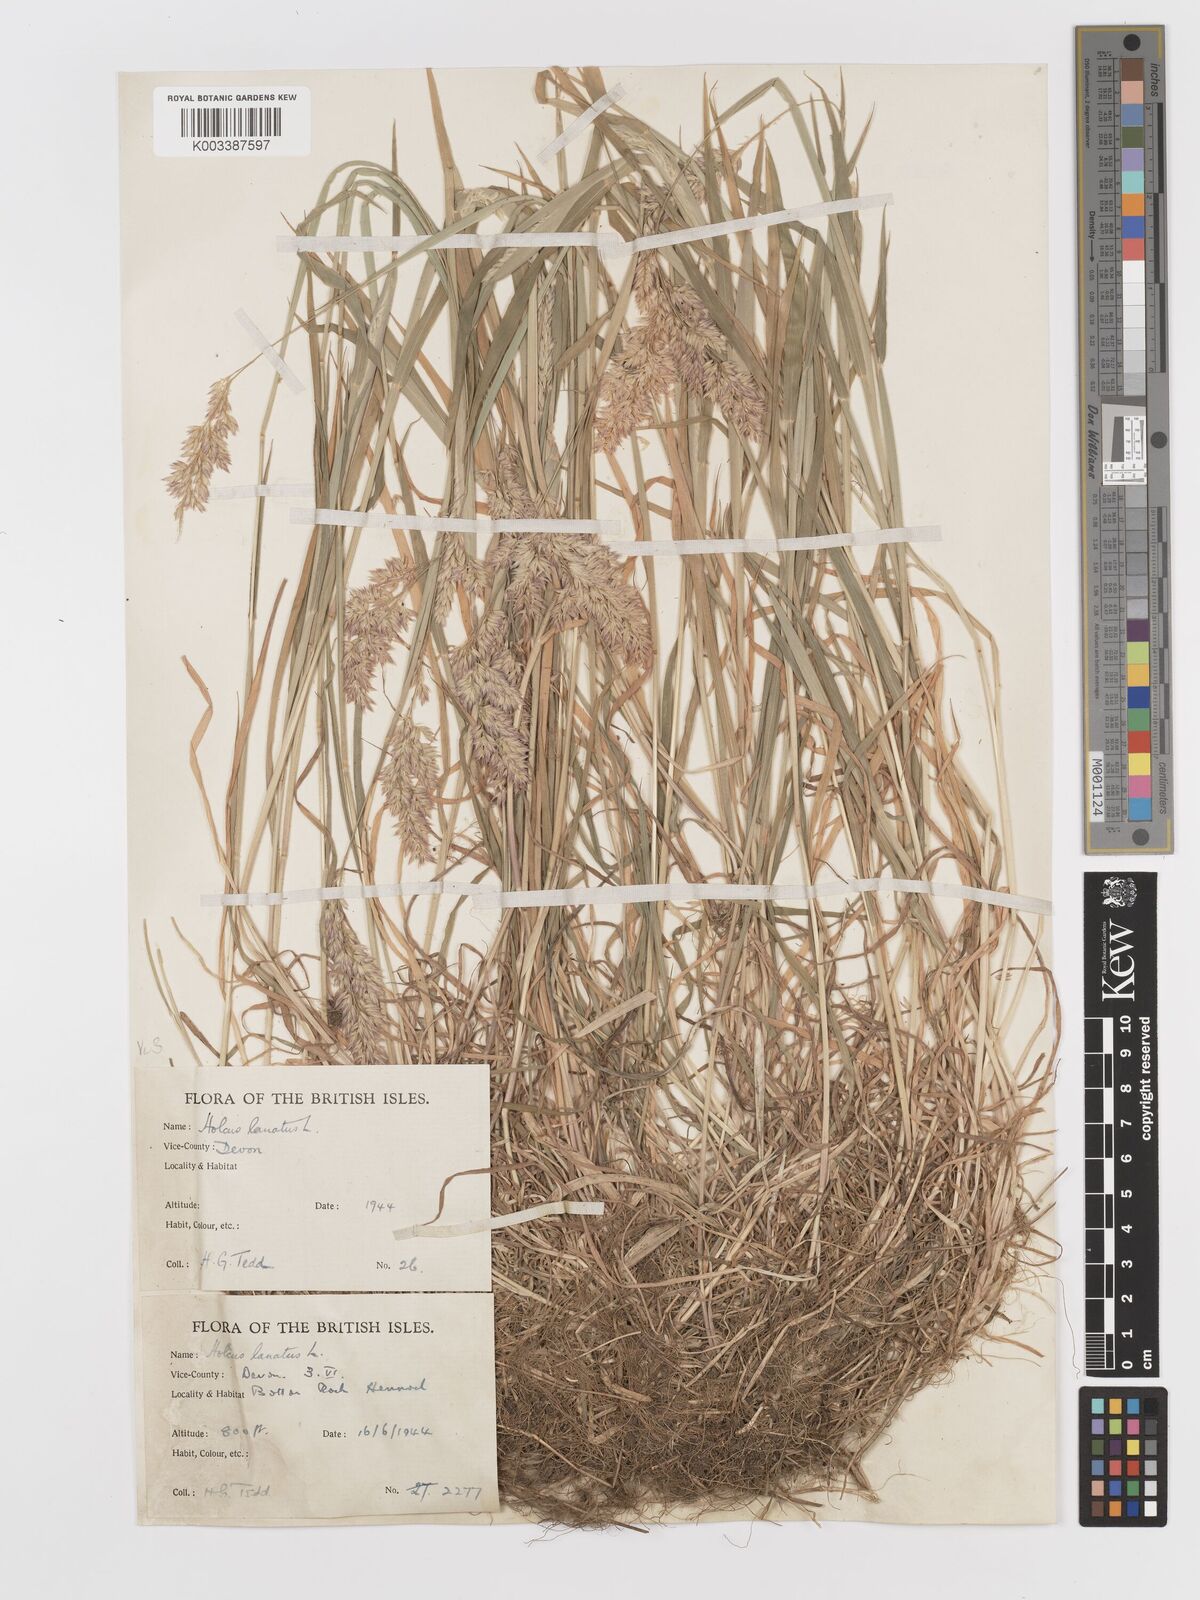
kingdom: Plantae
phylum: Tracheophyta
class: Liliopsida
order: Poales
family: Poaceae
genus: Holcus
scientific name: Holcus lanatus
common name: Yorkshire-fog
